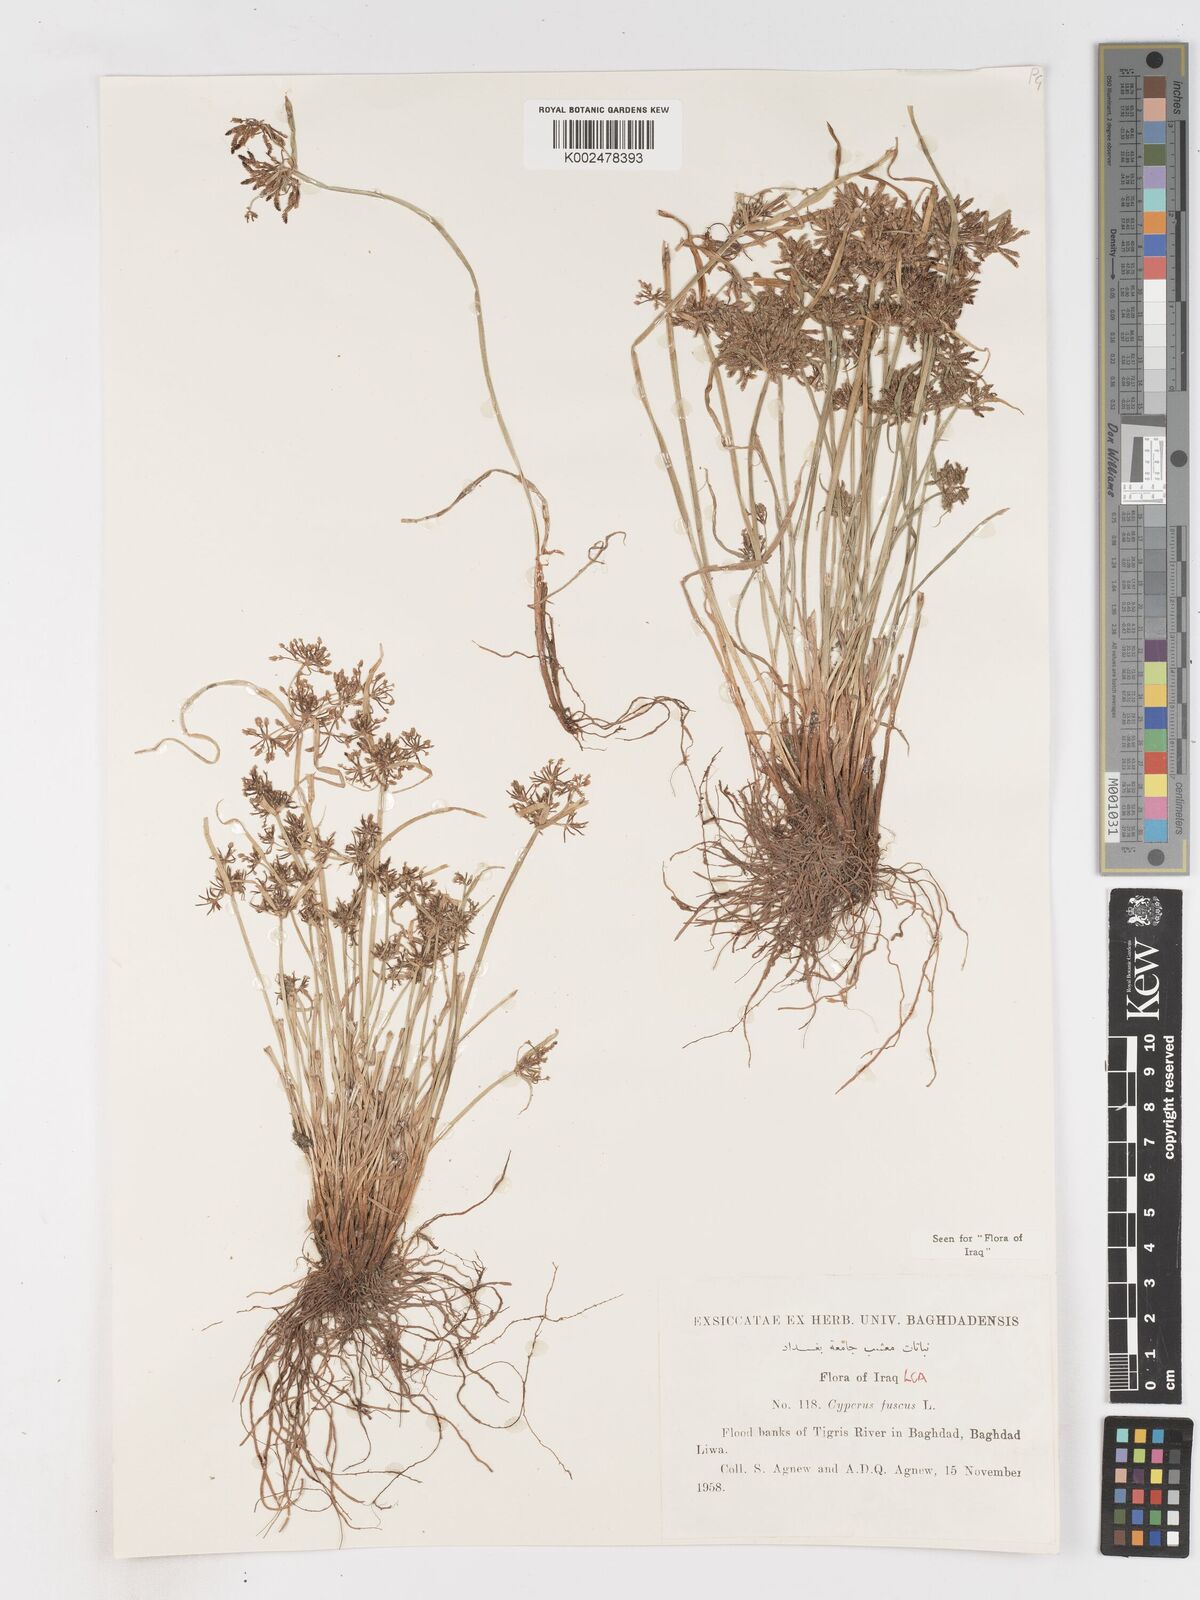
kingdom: Plantae
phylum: Tracheophyta
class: Liliopsida
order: Poales
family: Cyperaceae
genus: Cyperus
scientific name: Cyperus fuscus
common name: Brown galingale
